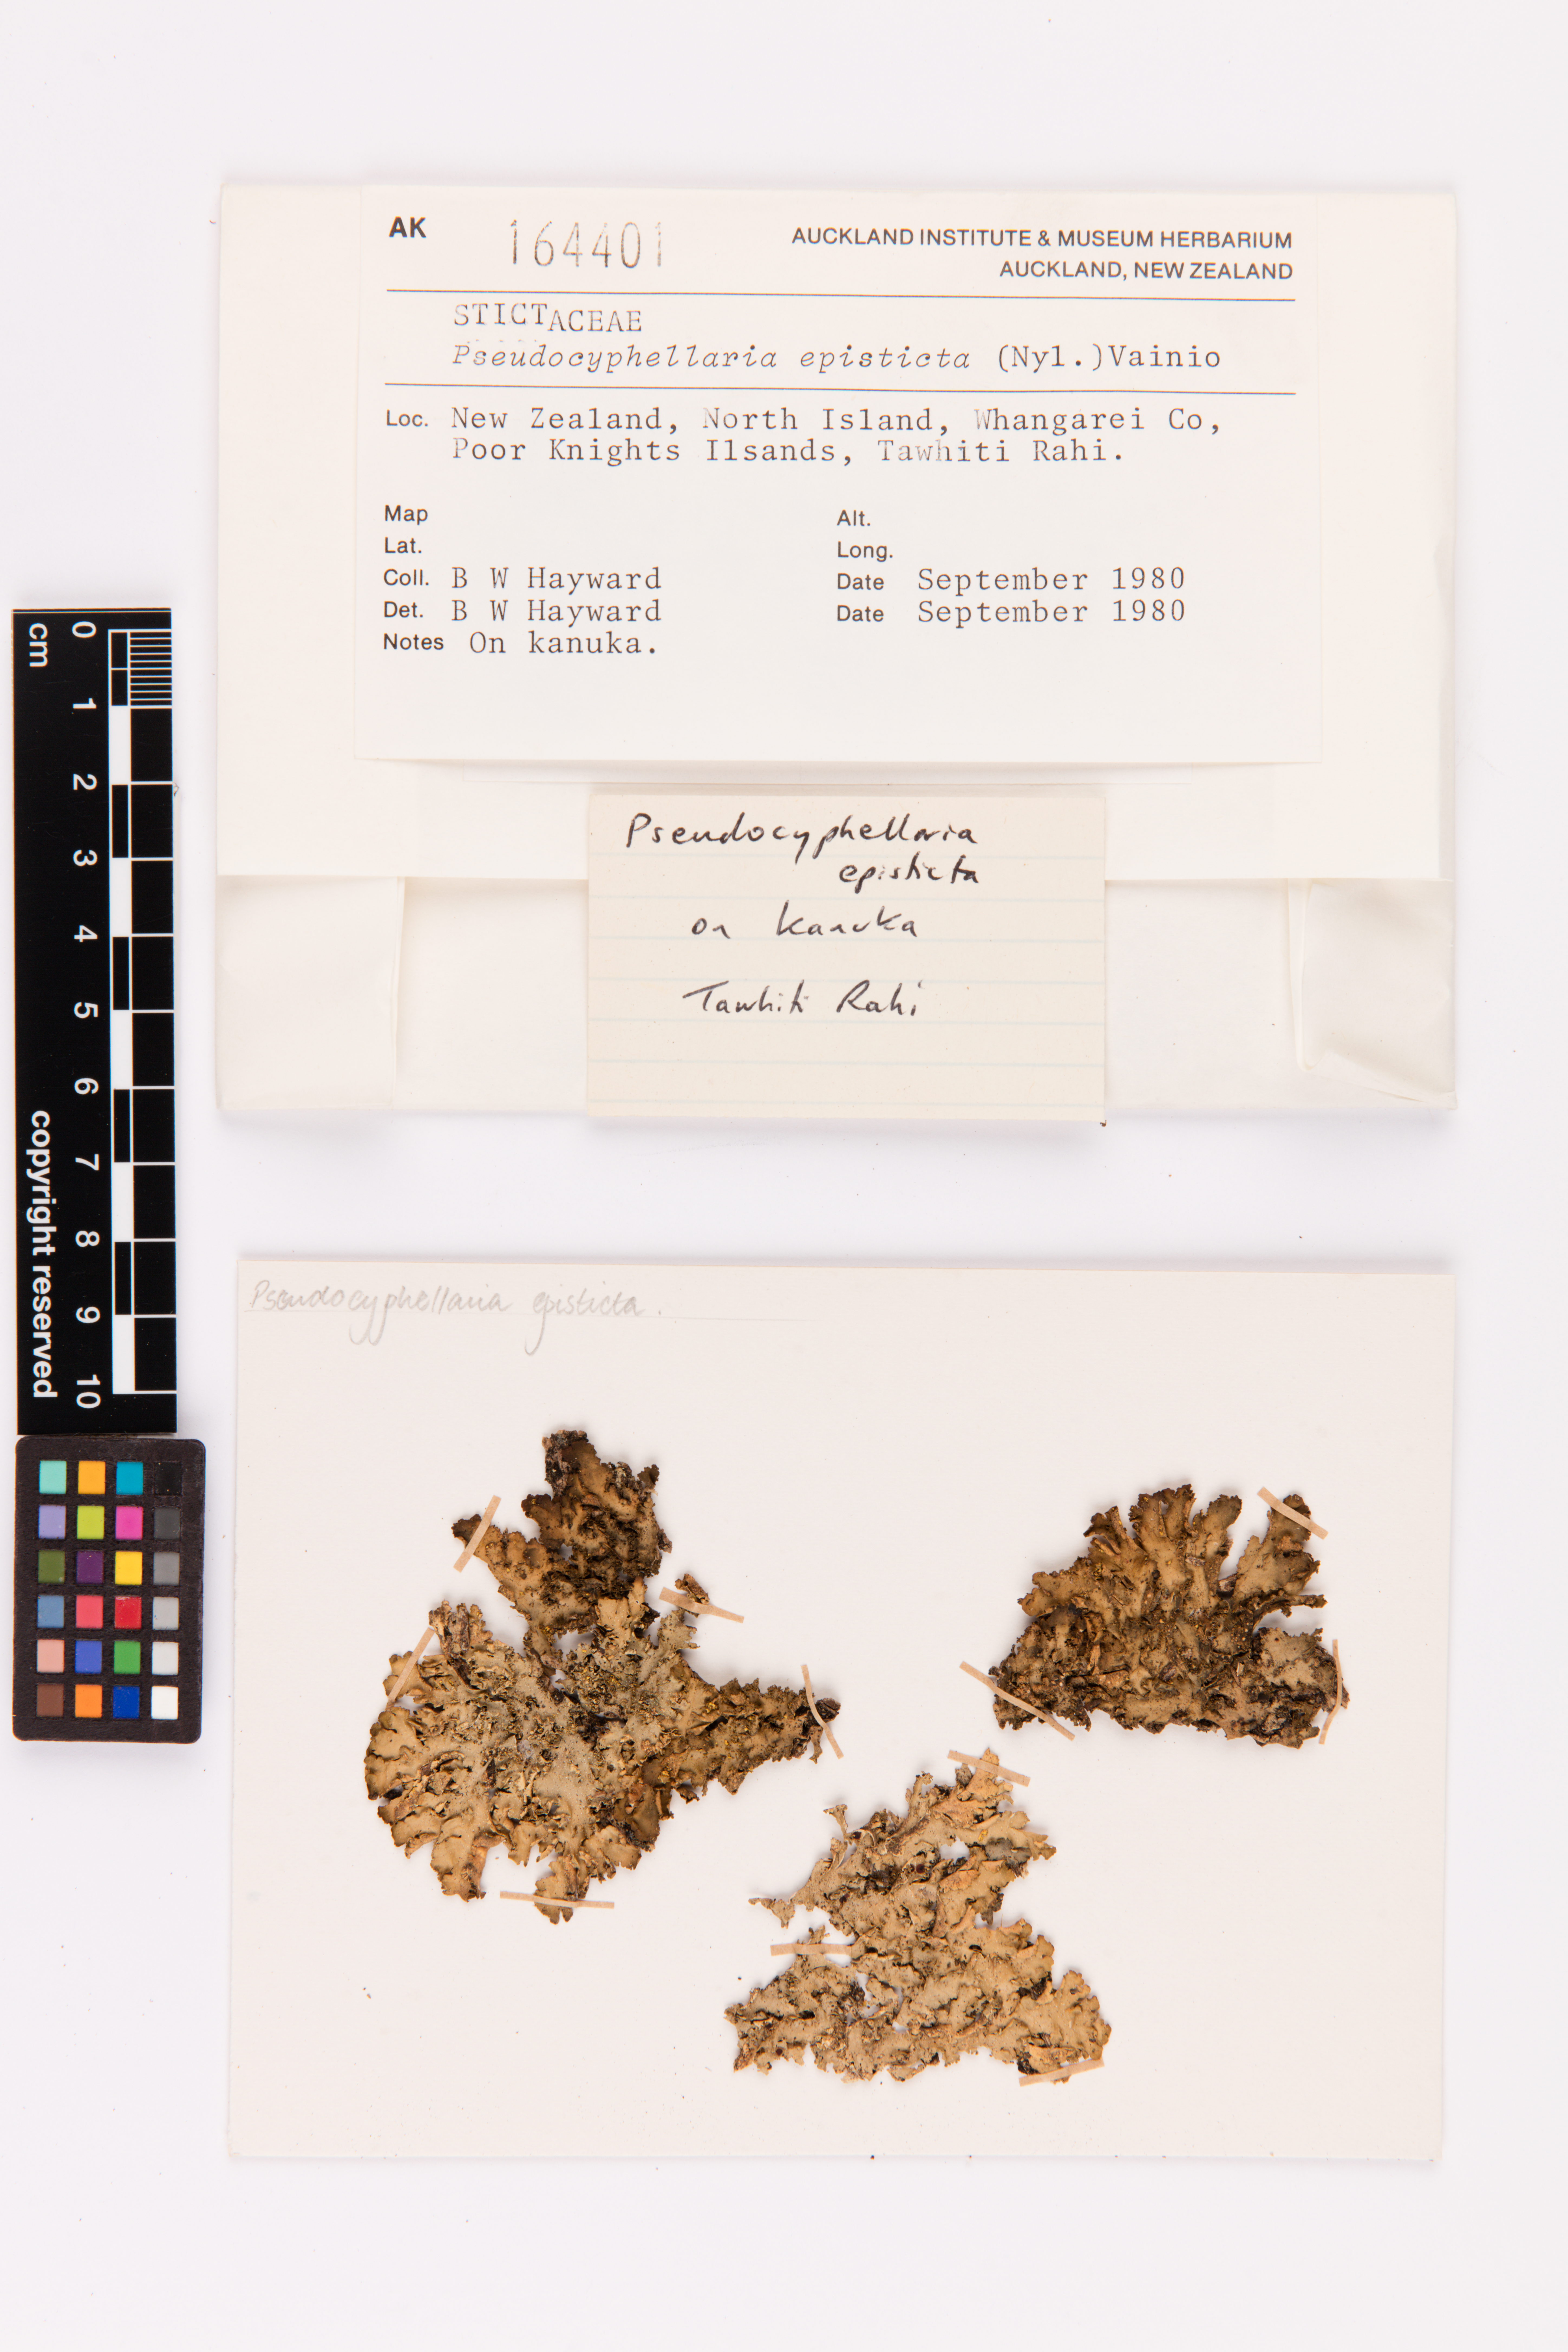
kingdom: Fungi
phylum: Ascomycota
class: Lecanoromycetes
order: Peltigerales
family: Lobariaceae
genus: Pseudocyphellaria
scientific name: Pseudocyphellaria episticta
